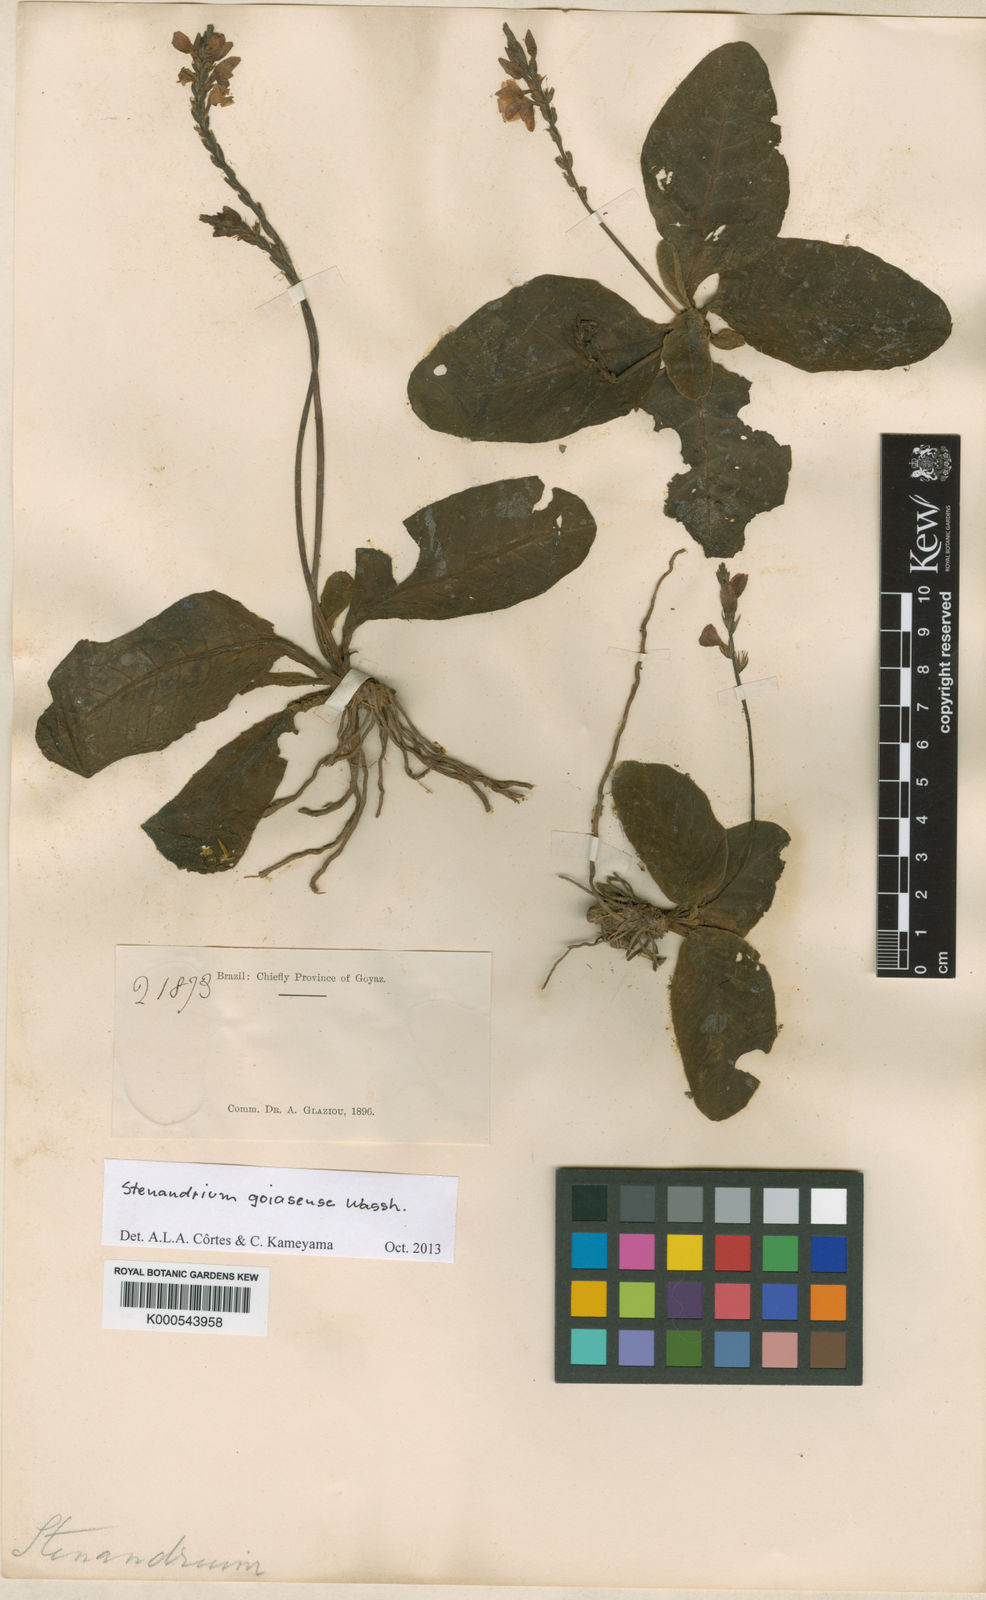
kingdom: Plantae
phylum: Tracheophyta
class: Magnoliopsida
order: Lamiales
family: Acanthaceae
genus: Stenandrium
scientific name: Stenandrium goiasense
